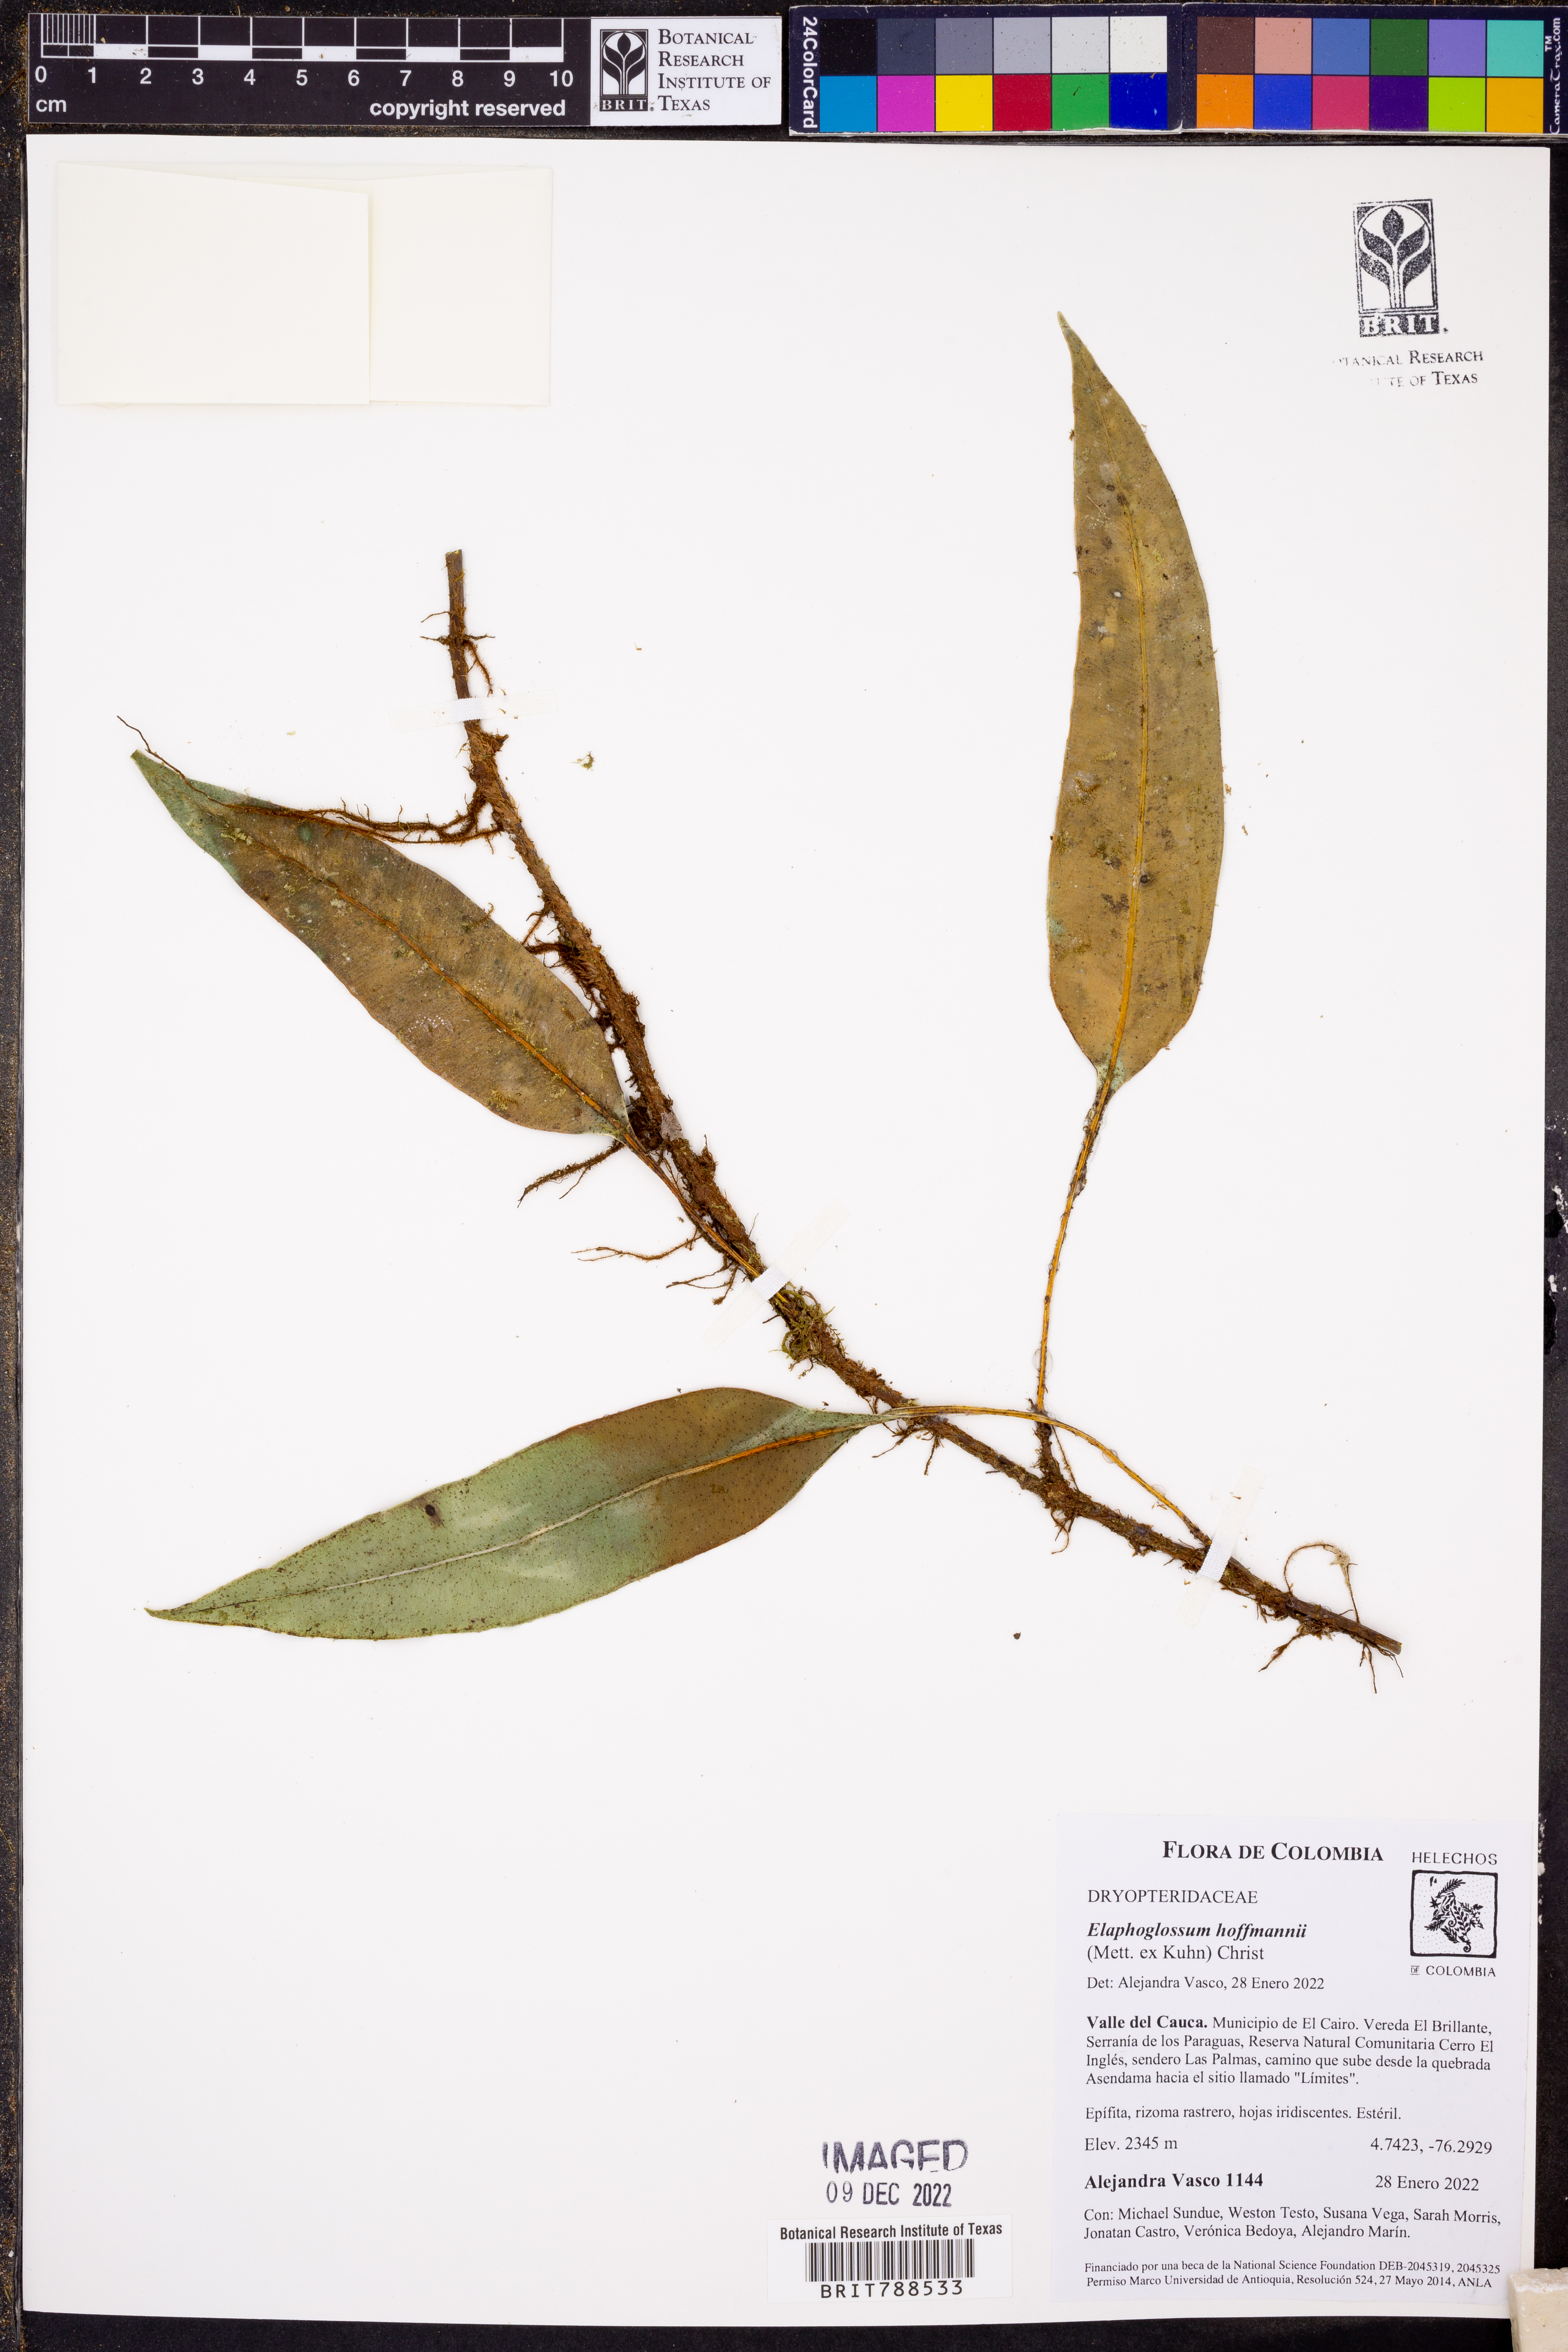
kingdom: Plantae
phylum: Tracheophyta
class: Polypodiopsida
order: Polypodiales
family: Dryopteridaceae
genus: Elaphoglossum
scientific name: Elaphoglossum antioquianum
